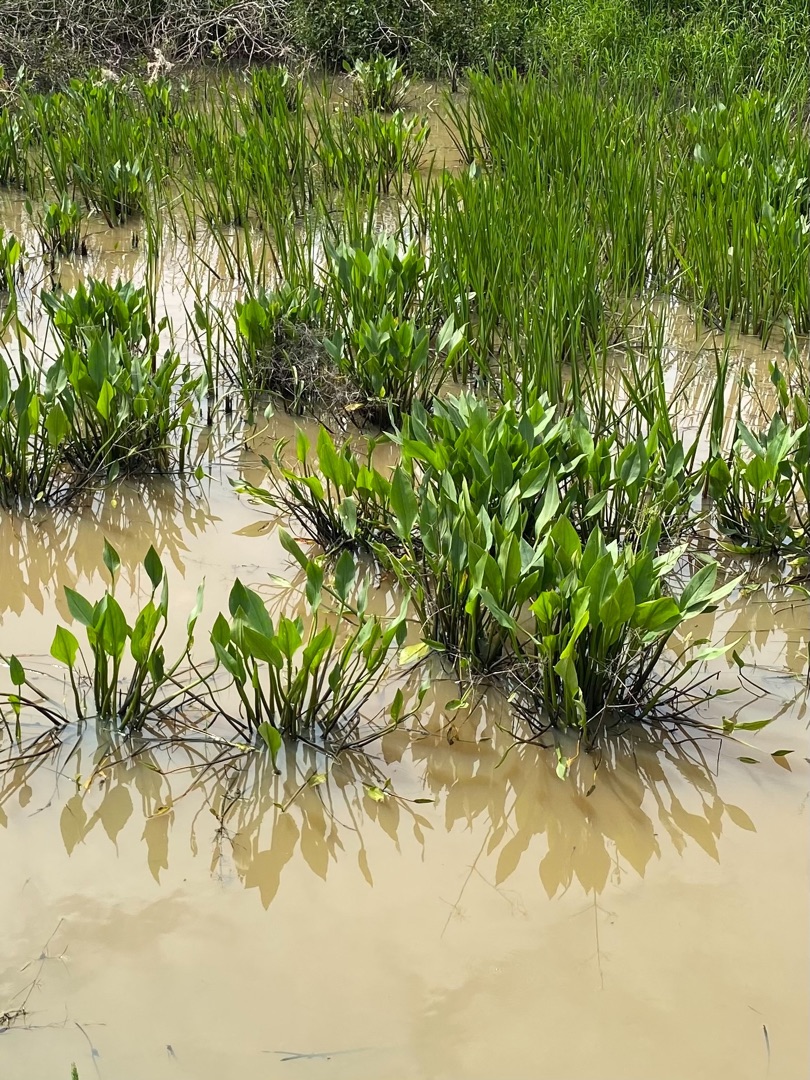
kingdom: Plantae
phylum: Tracheophyta
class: Liliopsida
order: Alismatales
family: Alismataceae
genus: Alisma
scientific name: Alisma plantago-aquatica
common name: Vejbred-skeblad
